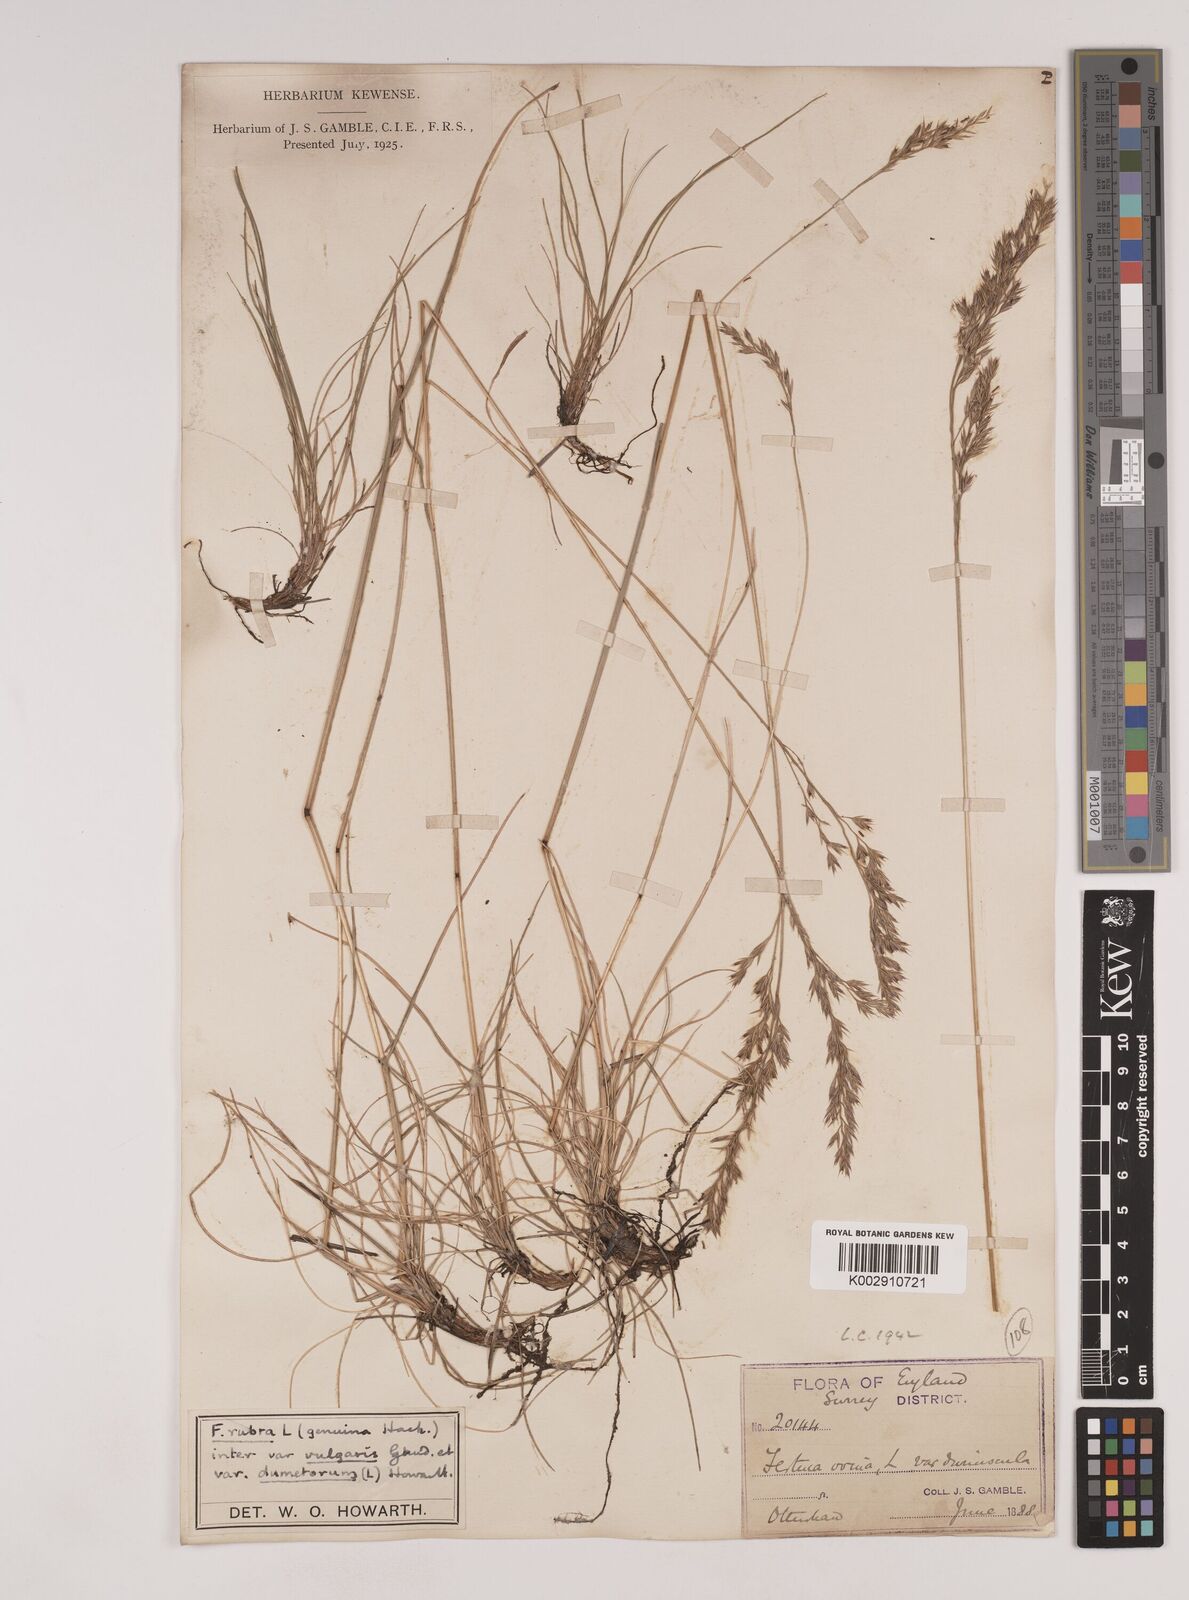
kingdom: Plantae
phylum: Tracheophyta
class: Liliopsida
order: Poales
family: Poaceae
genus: Festuca
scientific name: Festuca rubra
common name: Red fescue
